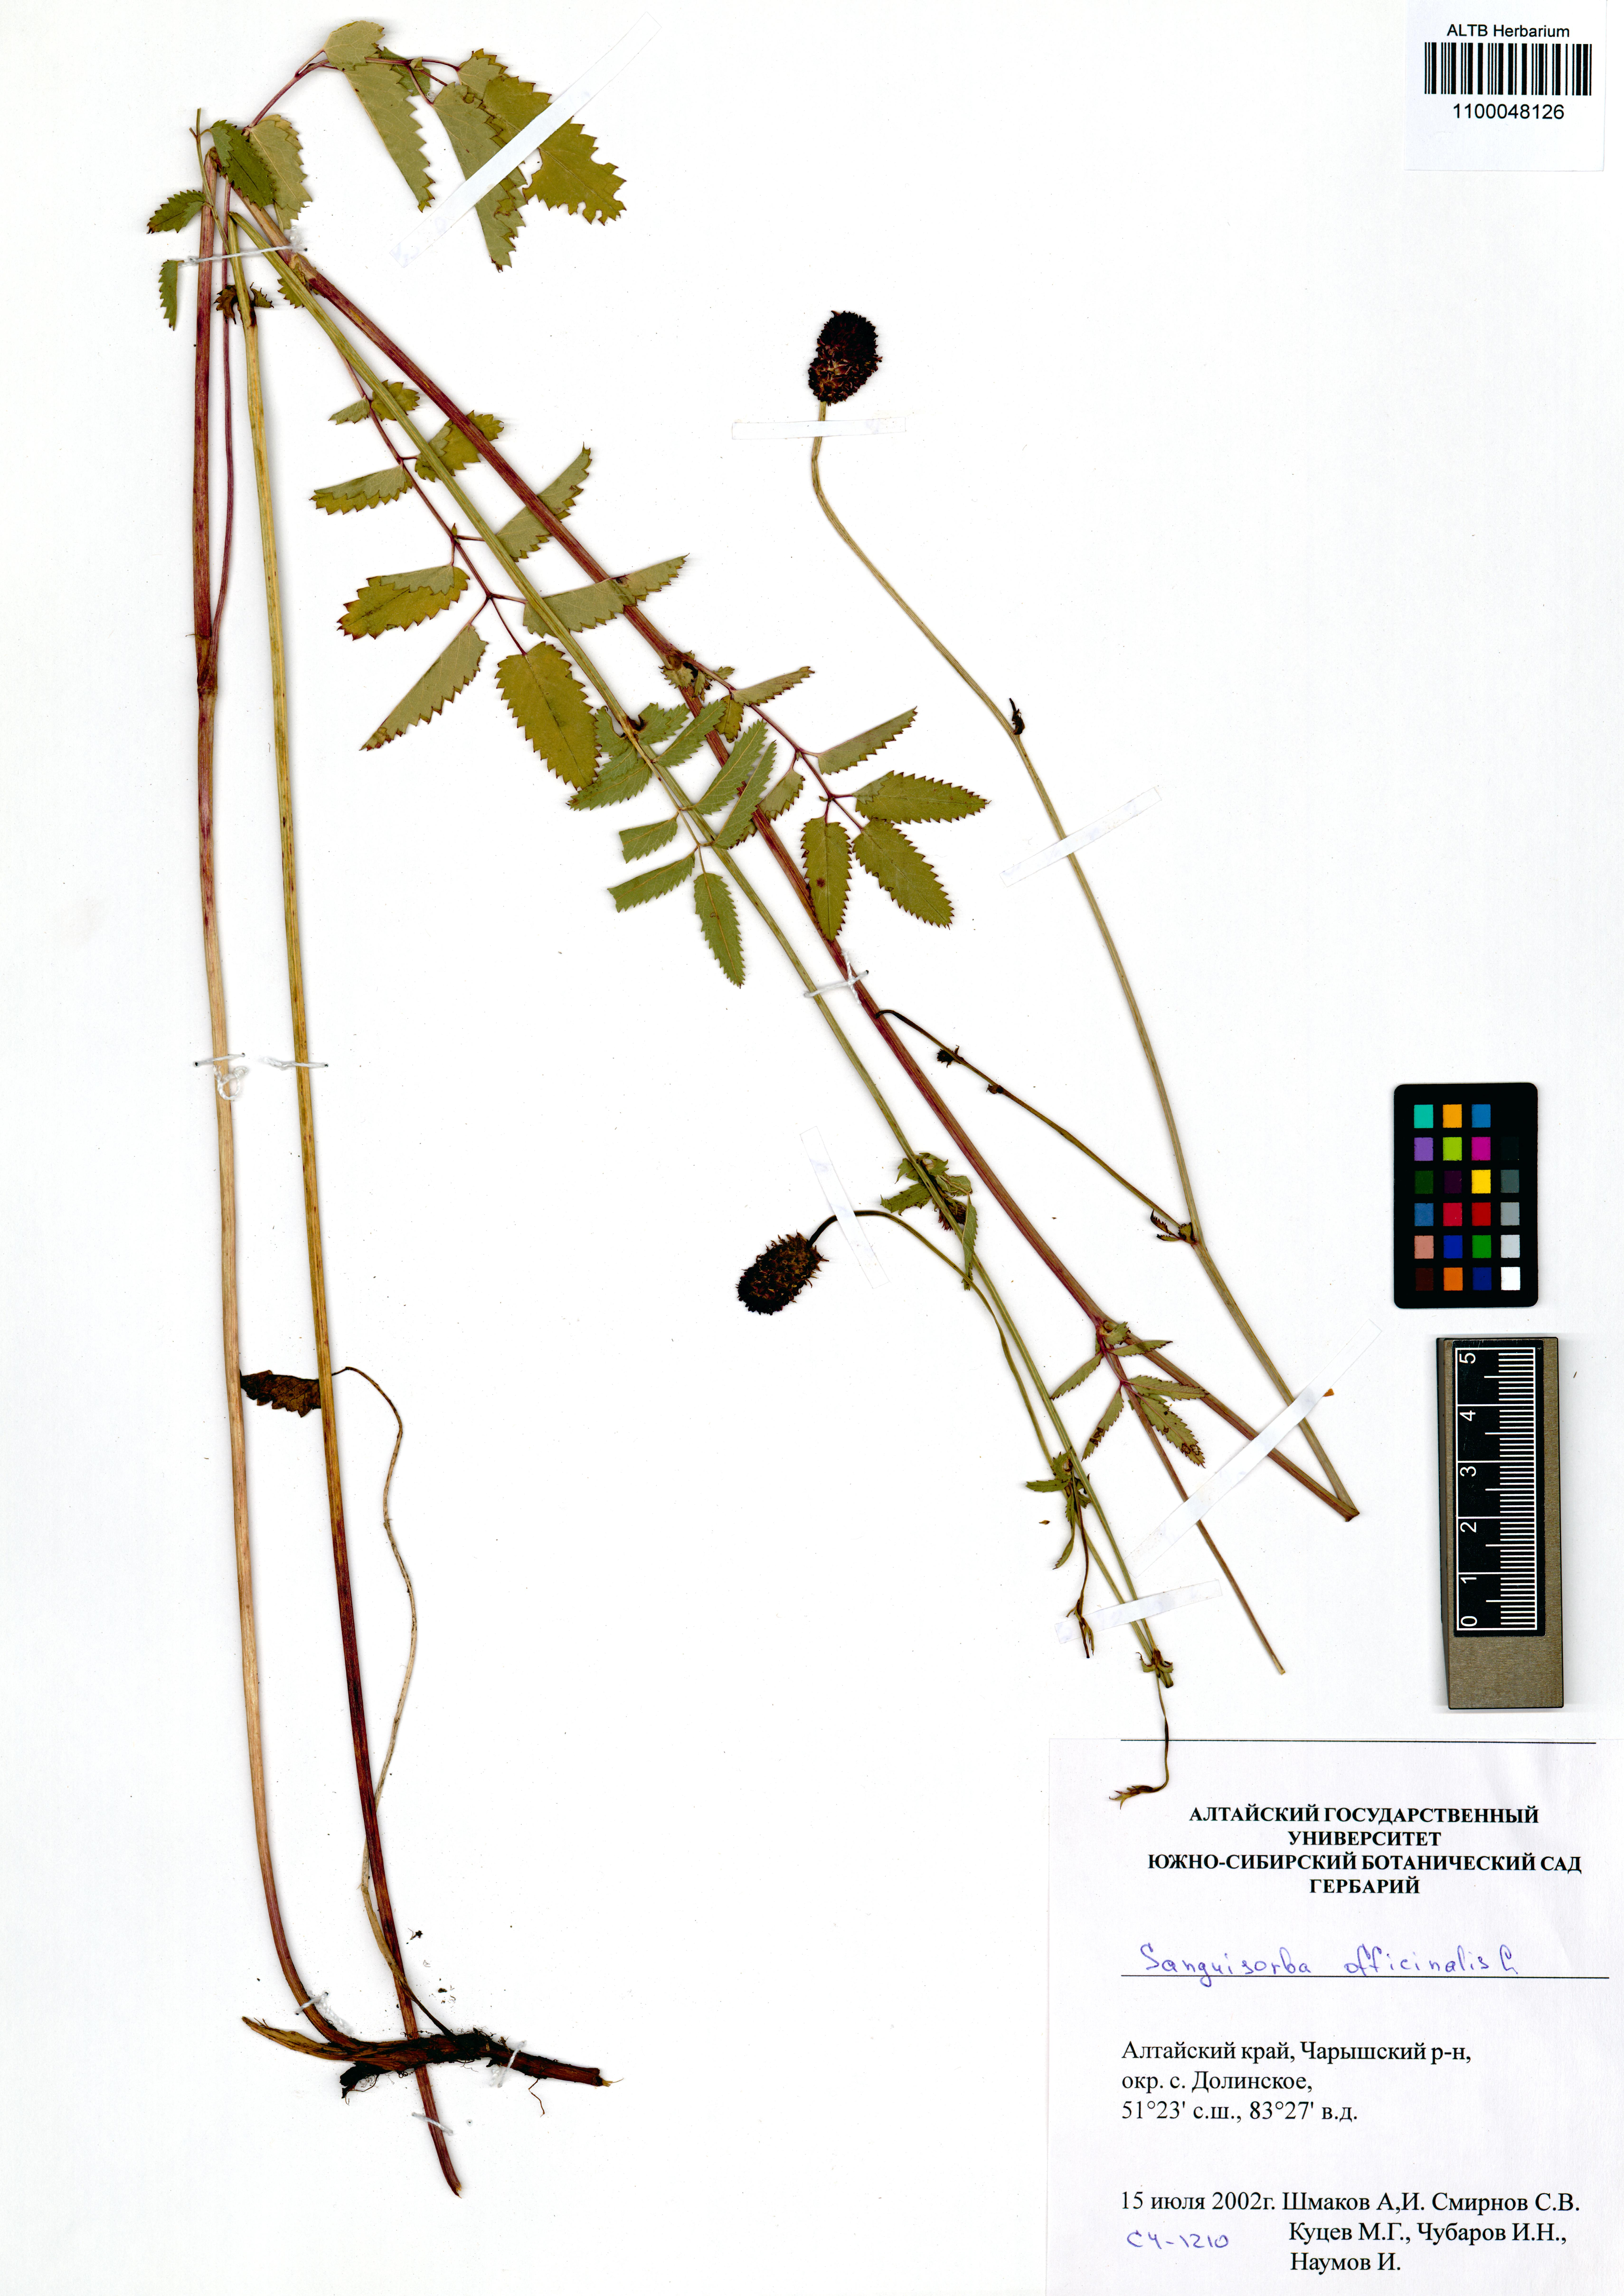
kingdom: Plantae
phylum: Tracheophyta
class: Magnoliopsida
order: Rosales
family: Rosaceae
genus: Sanguisorba
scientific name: Sanguisorba officinalis
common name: Great burnet
